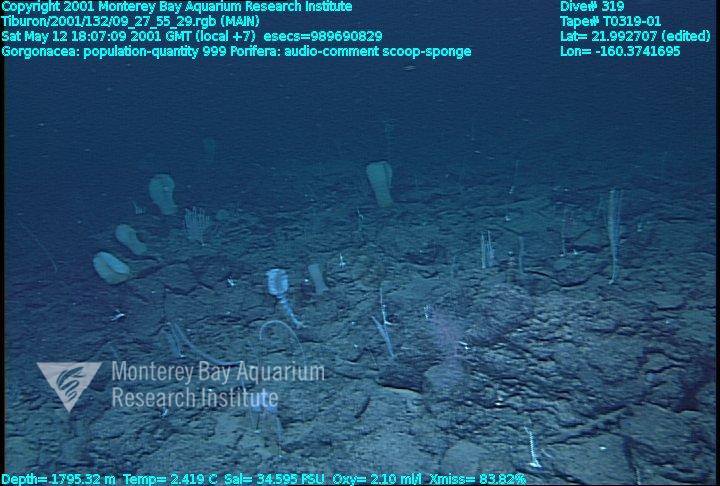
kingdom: Animalia
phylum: Porifera
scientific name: Porifera
